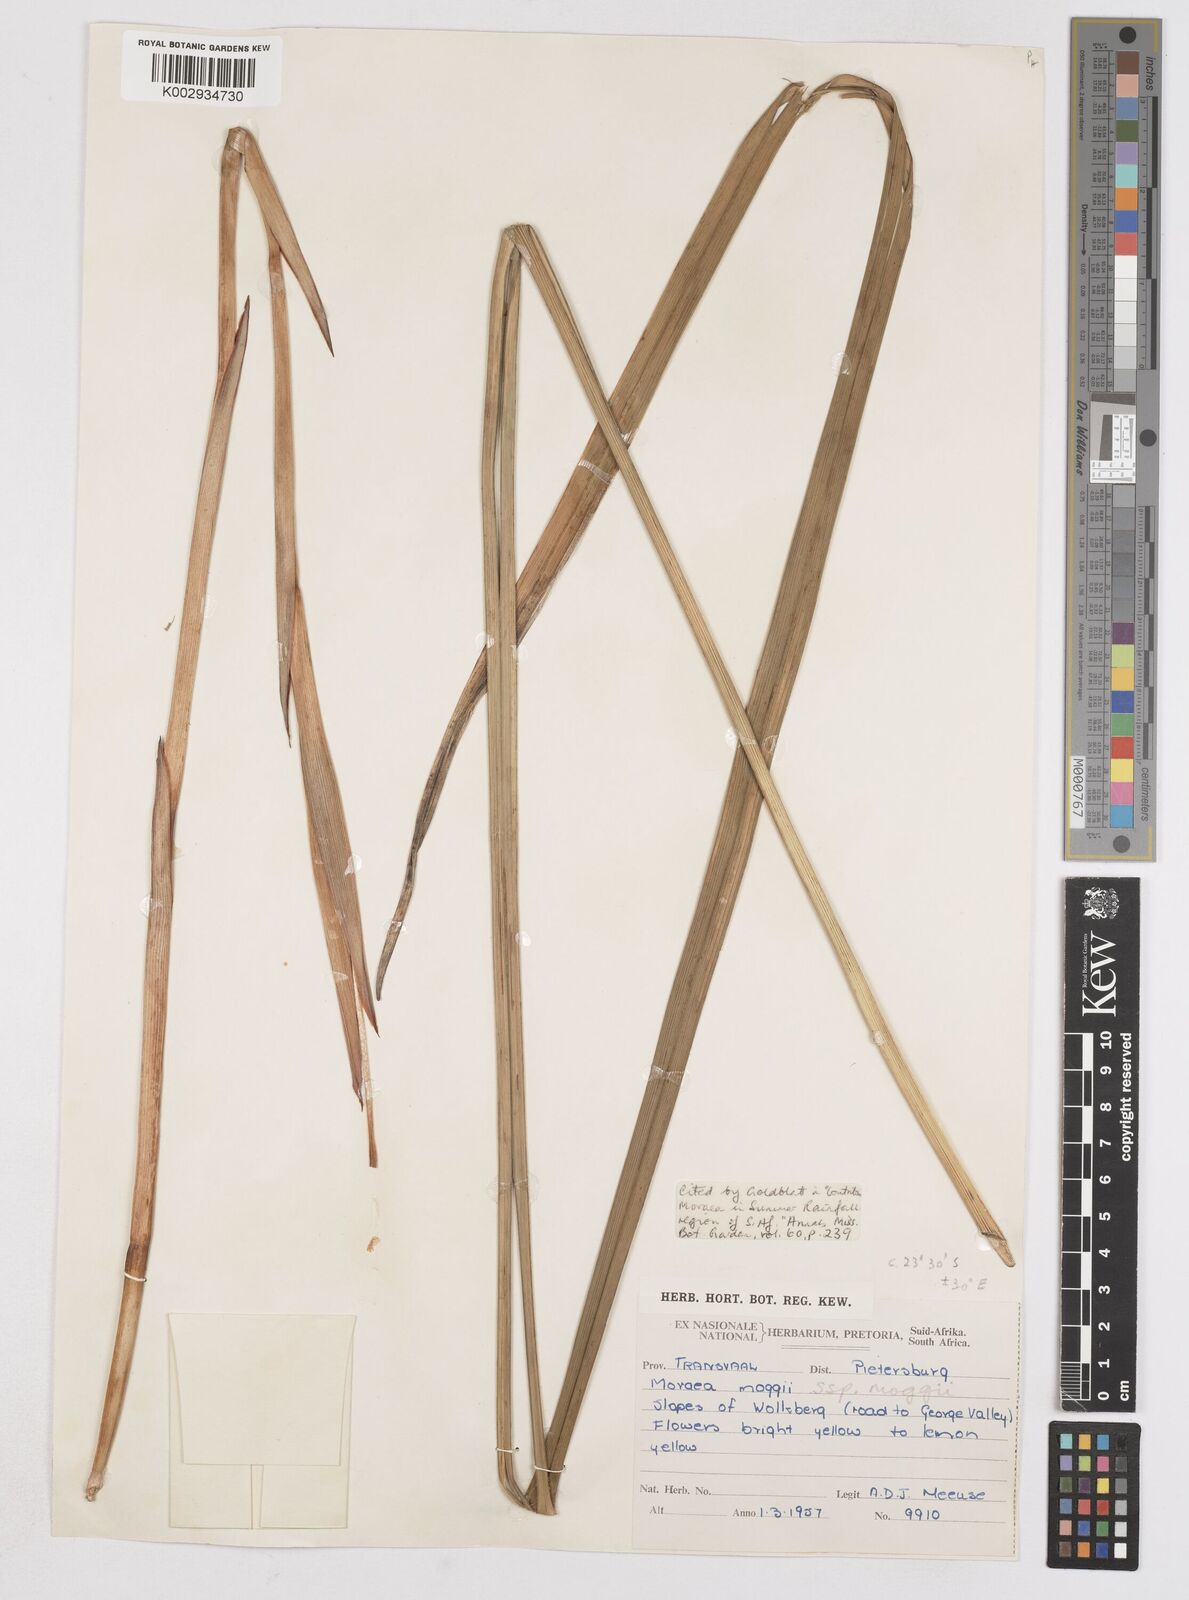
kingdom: Plantae
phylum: Tracheophyta
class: Liliopsida
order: Asparagales
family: Iridaceae
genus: Moraea
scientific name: Moraea moggii
